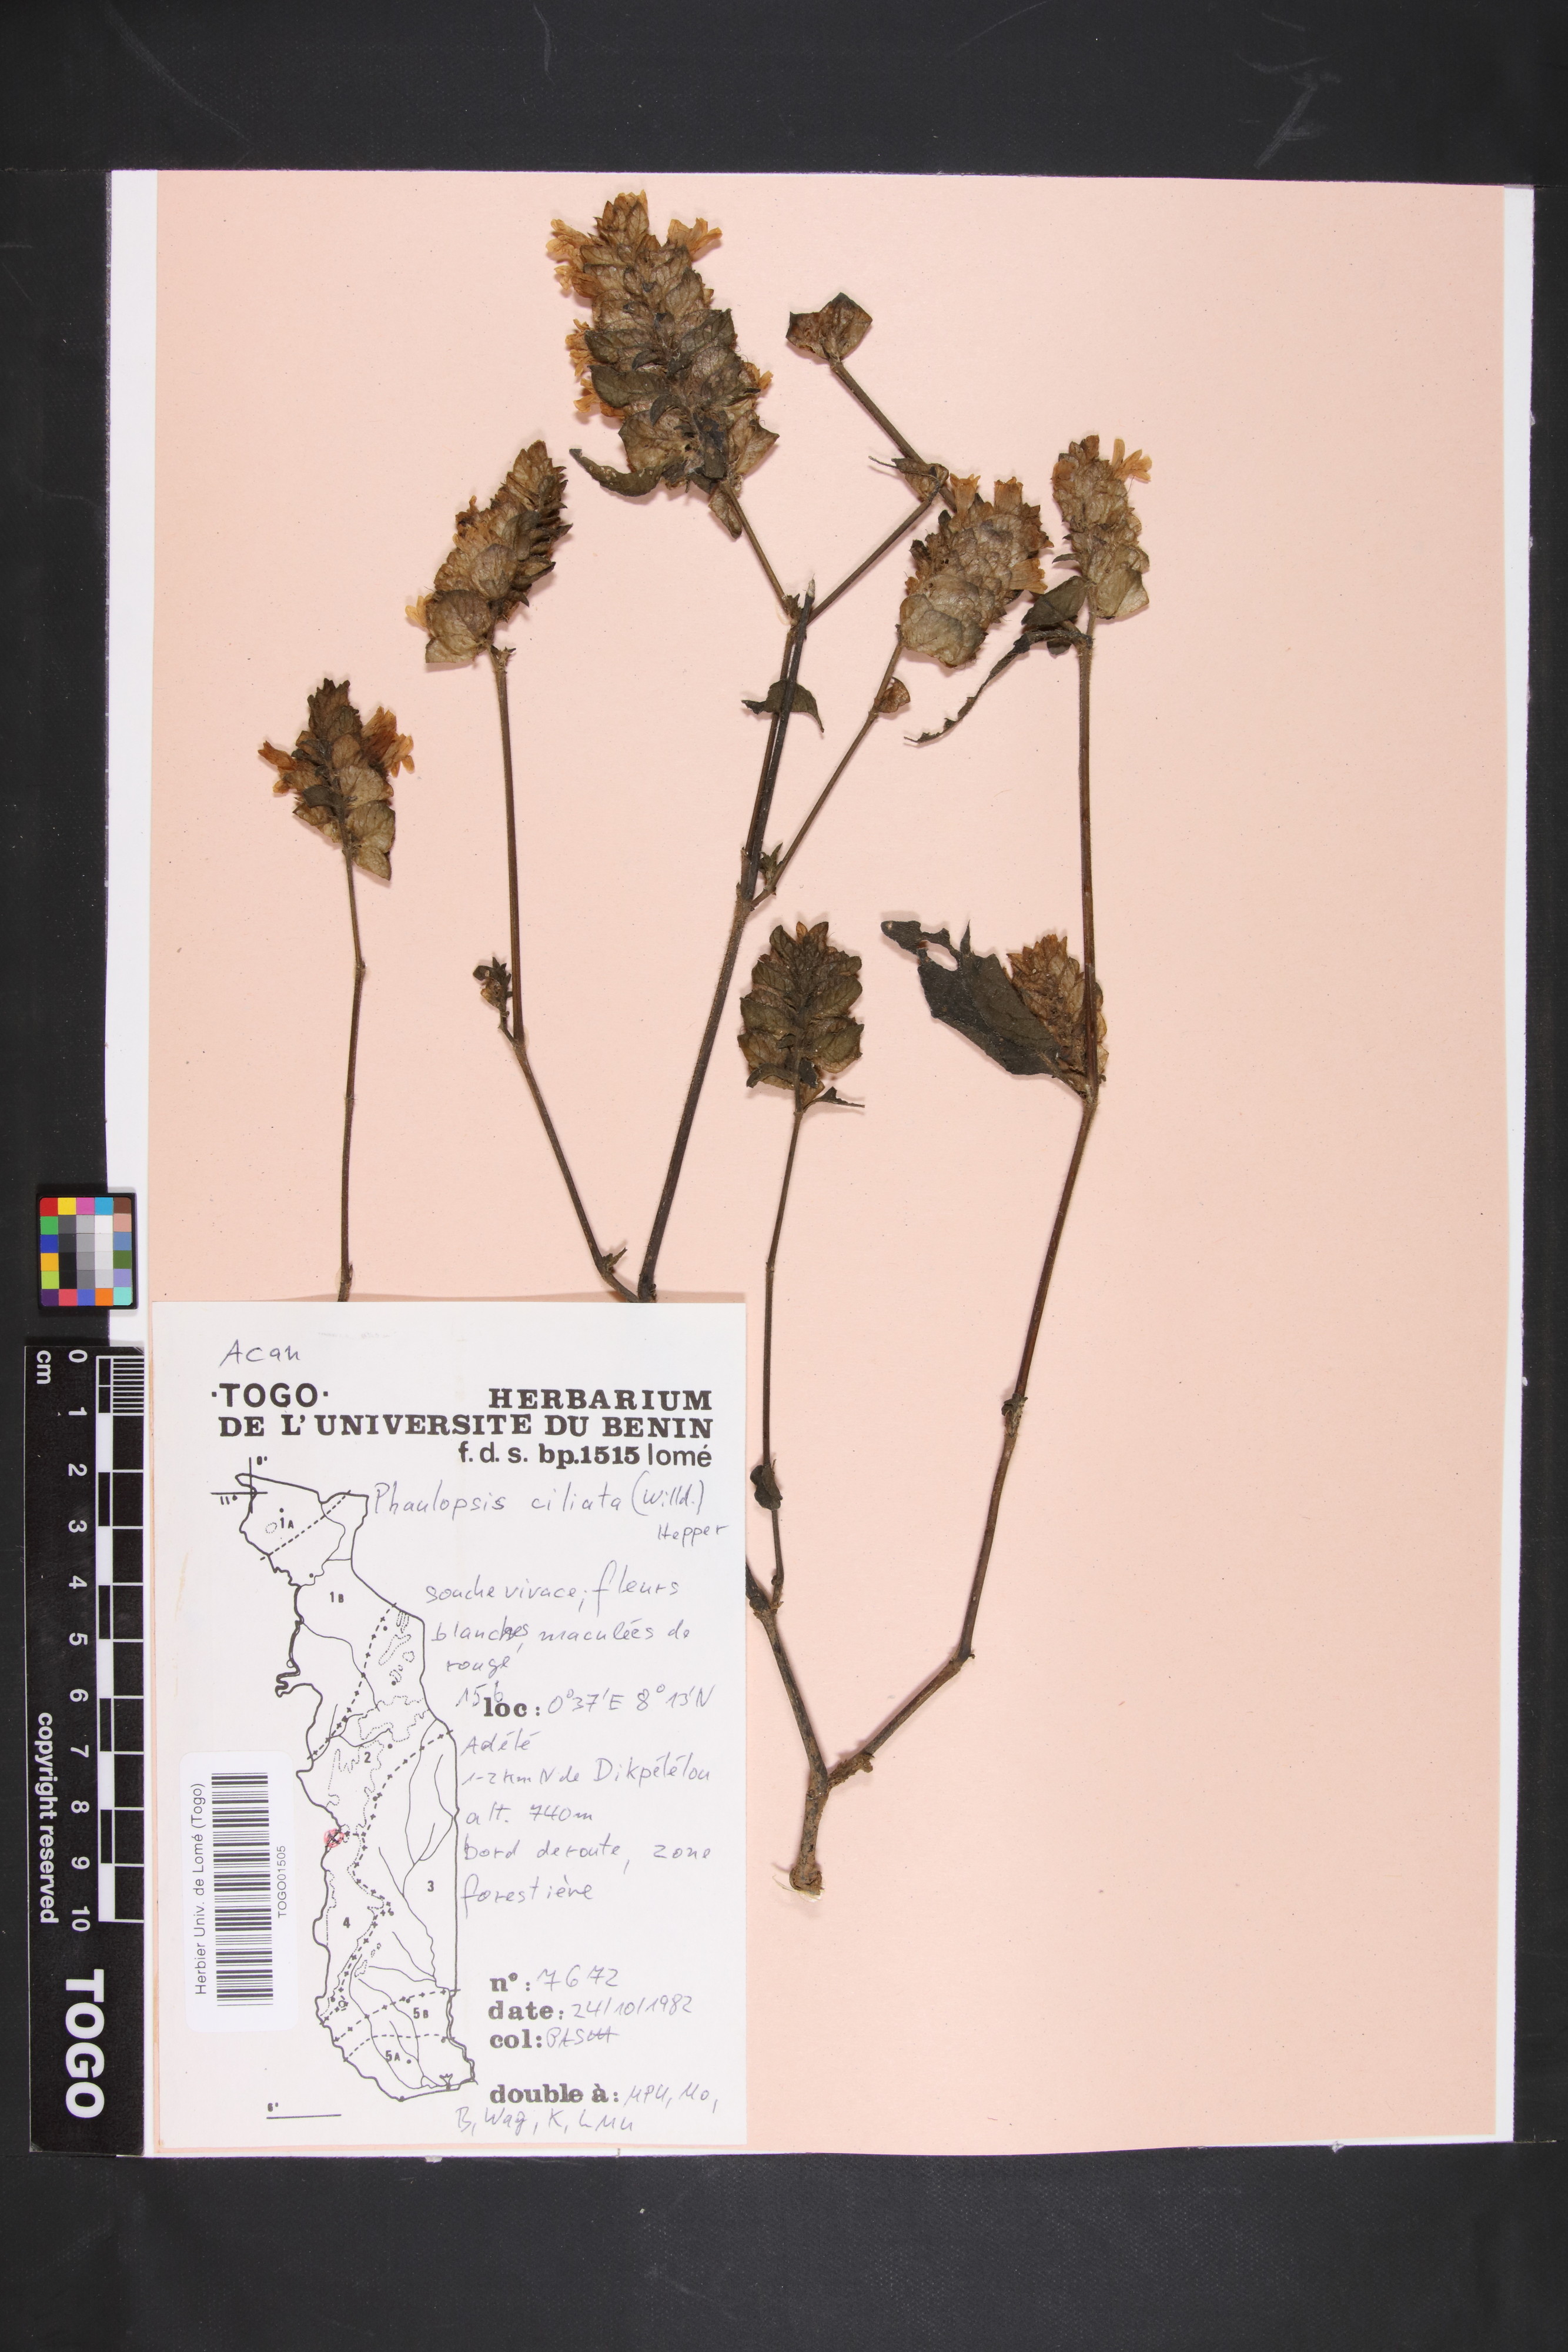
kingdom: Plantae
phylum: Tracheophyta
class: Magnoliopsida
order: Lamiales
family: Acanthaceae
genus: Phaulopsis
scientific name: Phaulopsis ciliata
